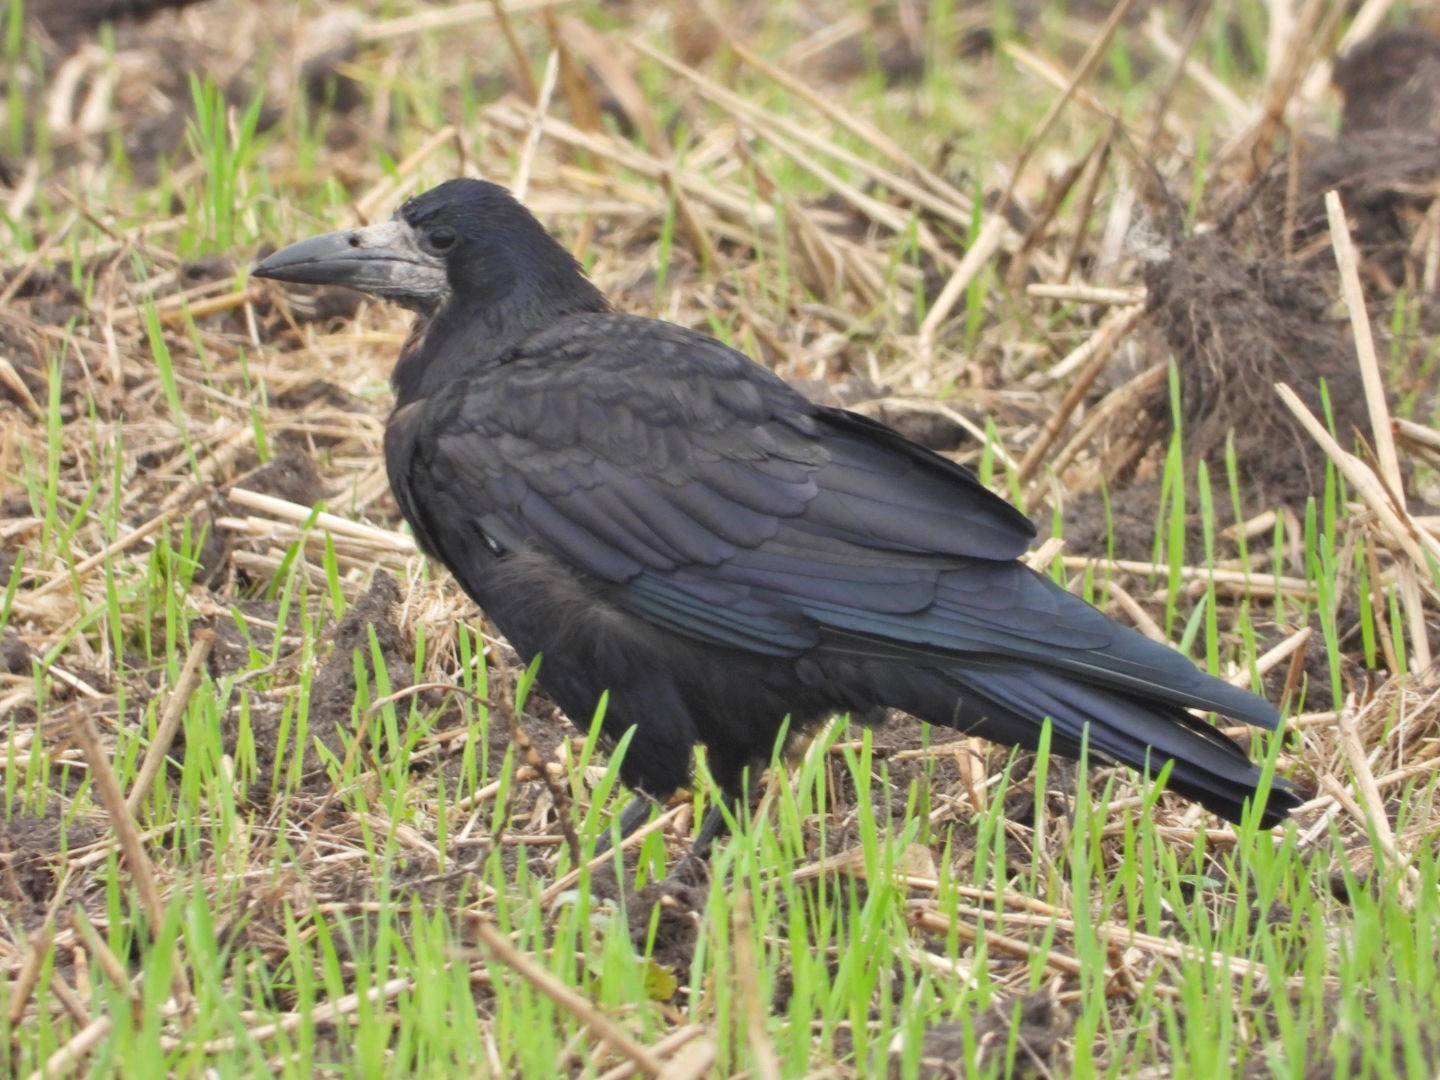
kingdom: Animalia
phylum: Chordata
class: Aves
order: Passeriformes
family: Corvidae
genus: Corvus
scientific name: Corvus frugilegus
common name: Råge
